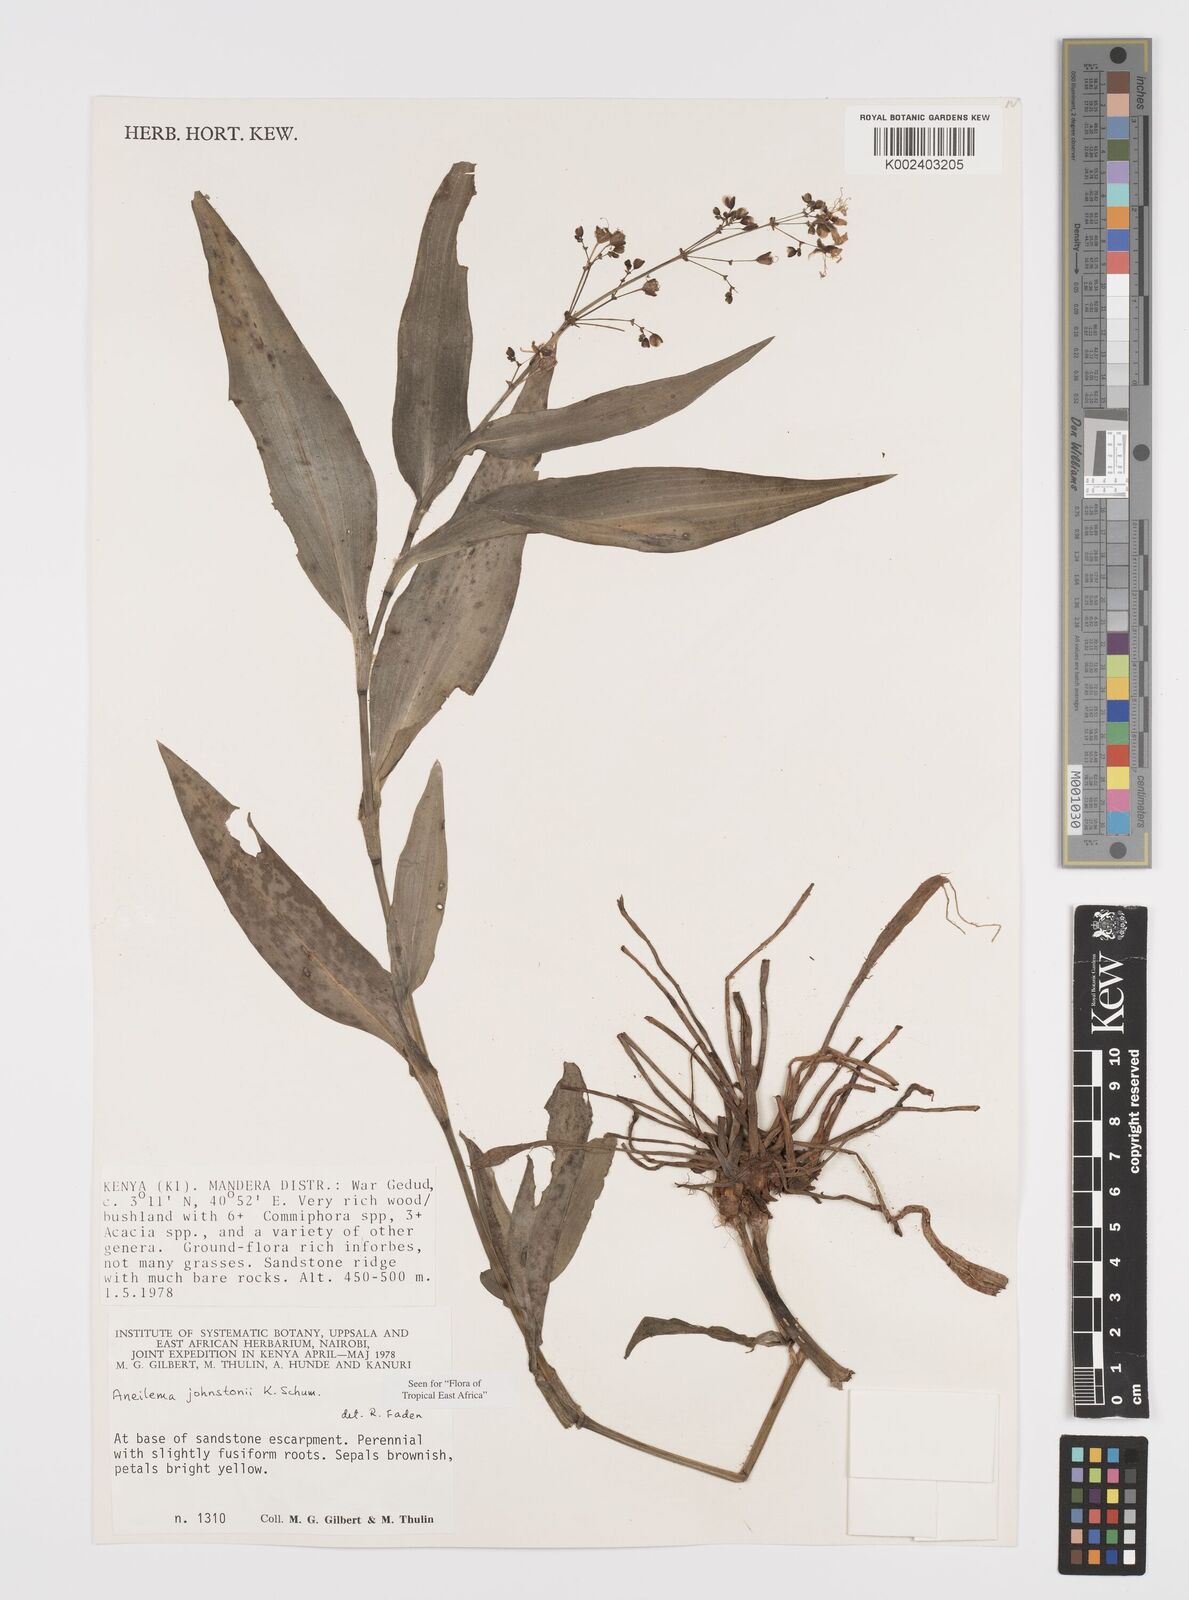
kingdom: Plantae
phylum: Tracheophyta
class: Liliopsida
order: Commelinales
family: Commelinaceae
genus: Aneilema
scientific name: Aneilema johnstonii
